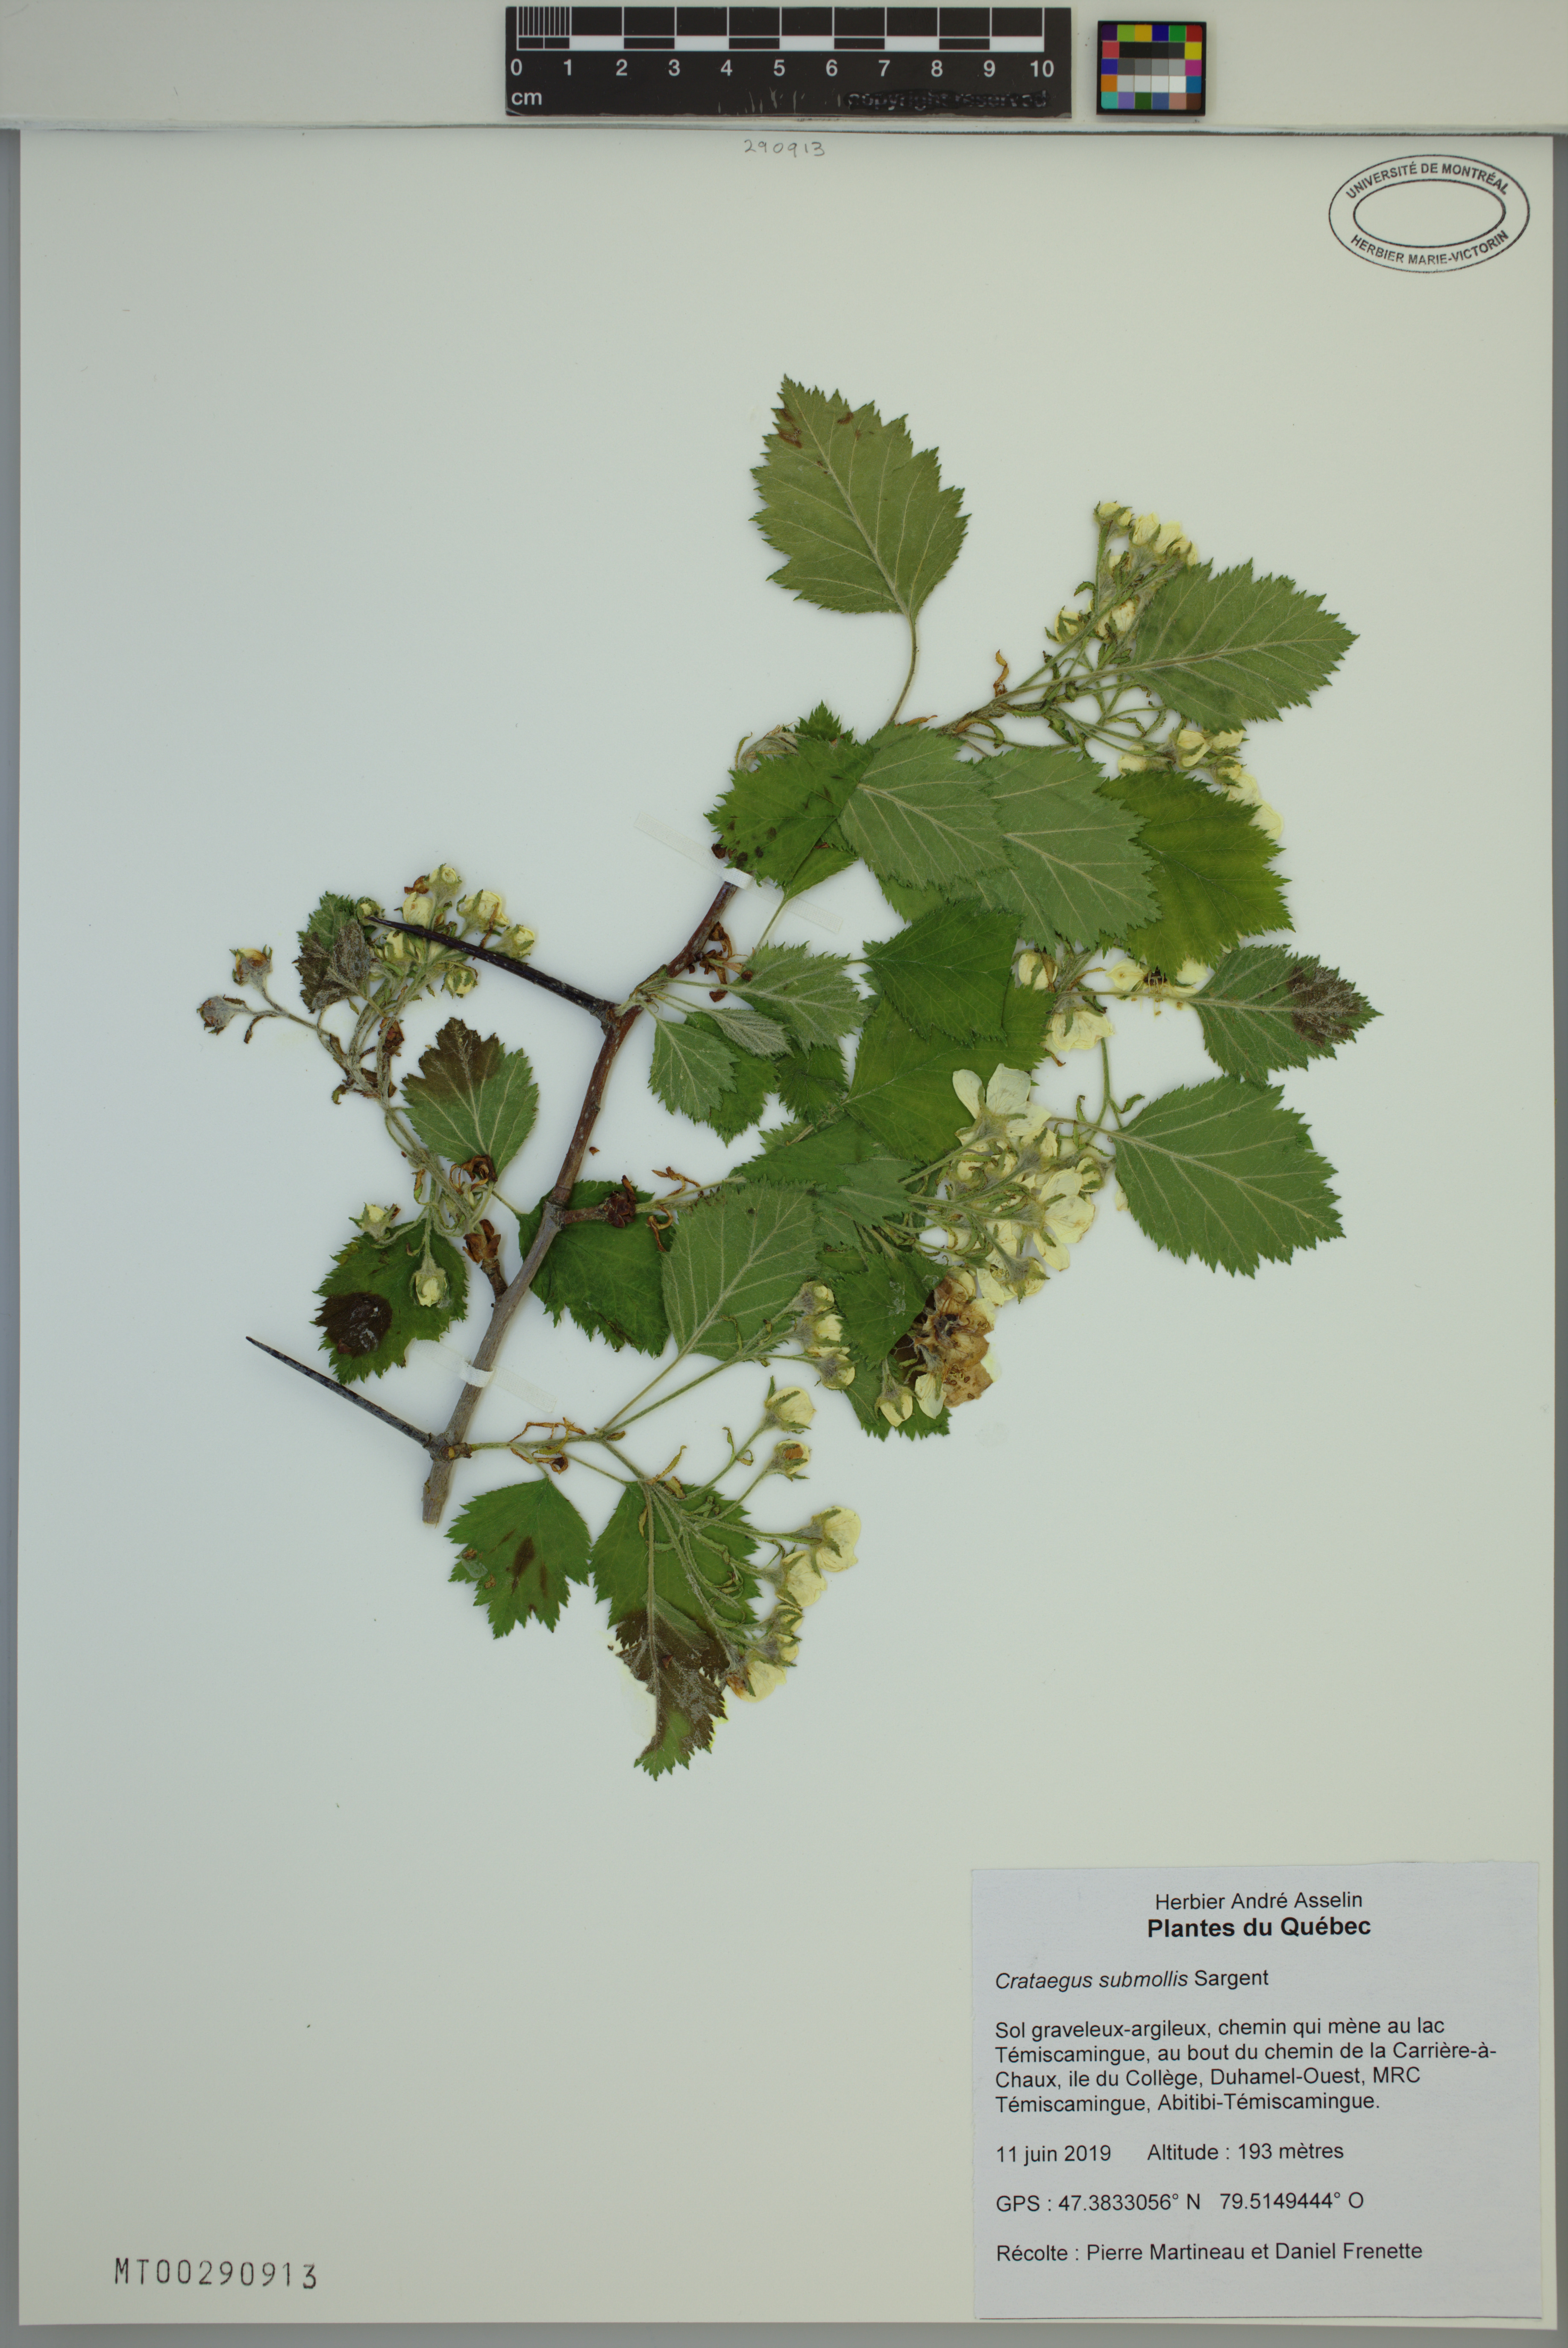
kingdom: Plantae
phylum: Tracheophyta
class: Magnoliopsida
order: Rosales
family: Rosaceae
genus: Crataegus
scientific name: Crataegus submollis
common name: Hairy cockspurthorn
